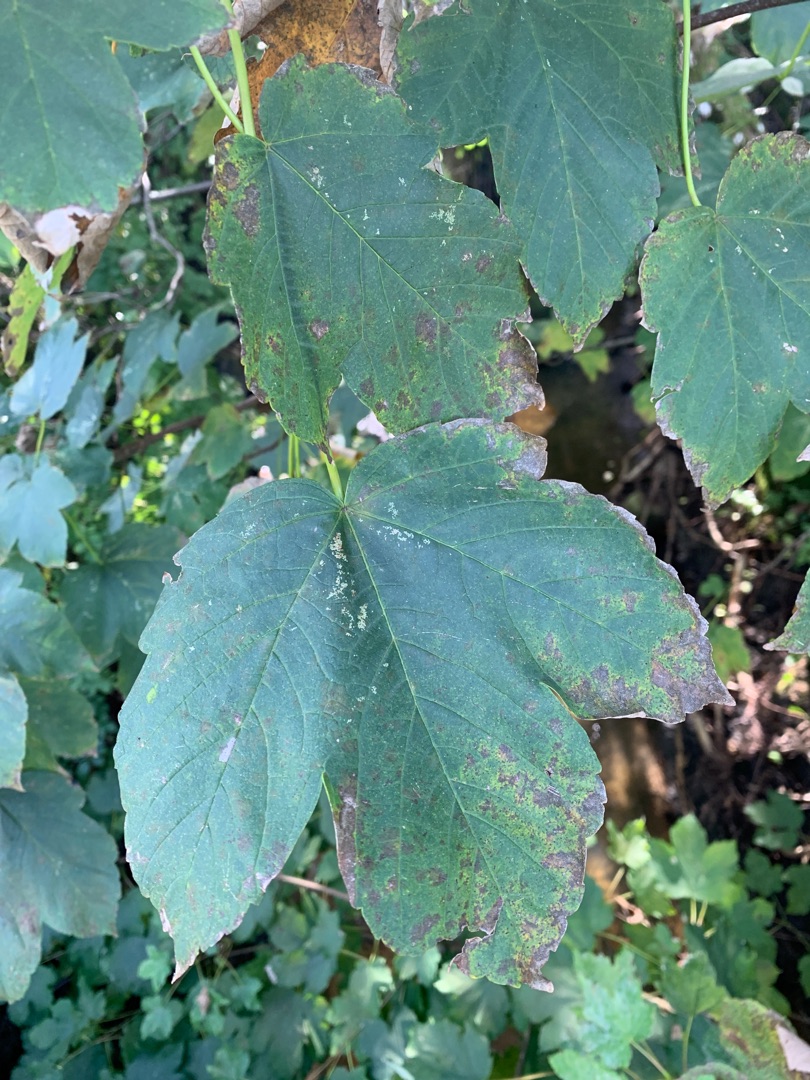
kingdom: Plantae
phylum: Tracheophyta
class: Magnoliopsida
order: Sapindales
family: Sapindaceae
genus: Acer
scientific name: Acer pseudoplatanus
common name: Ahorn
